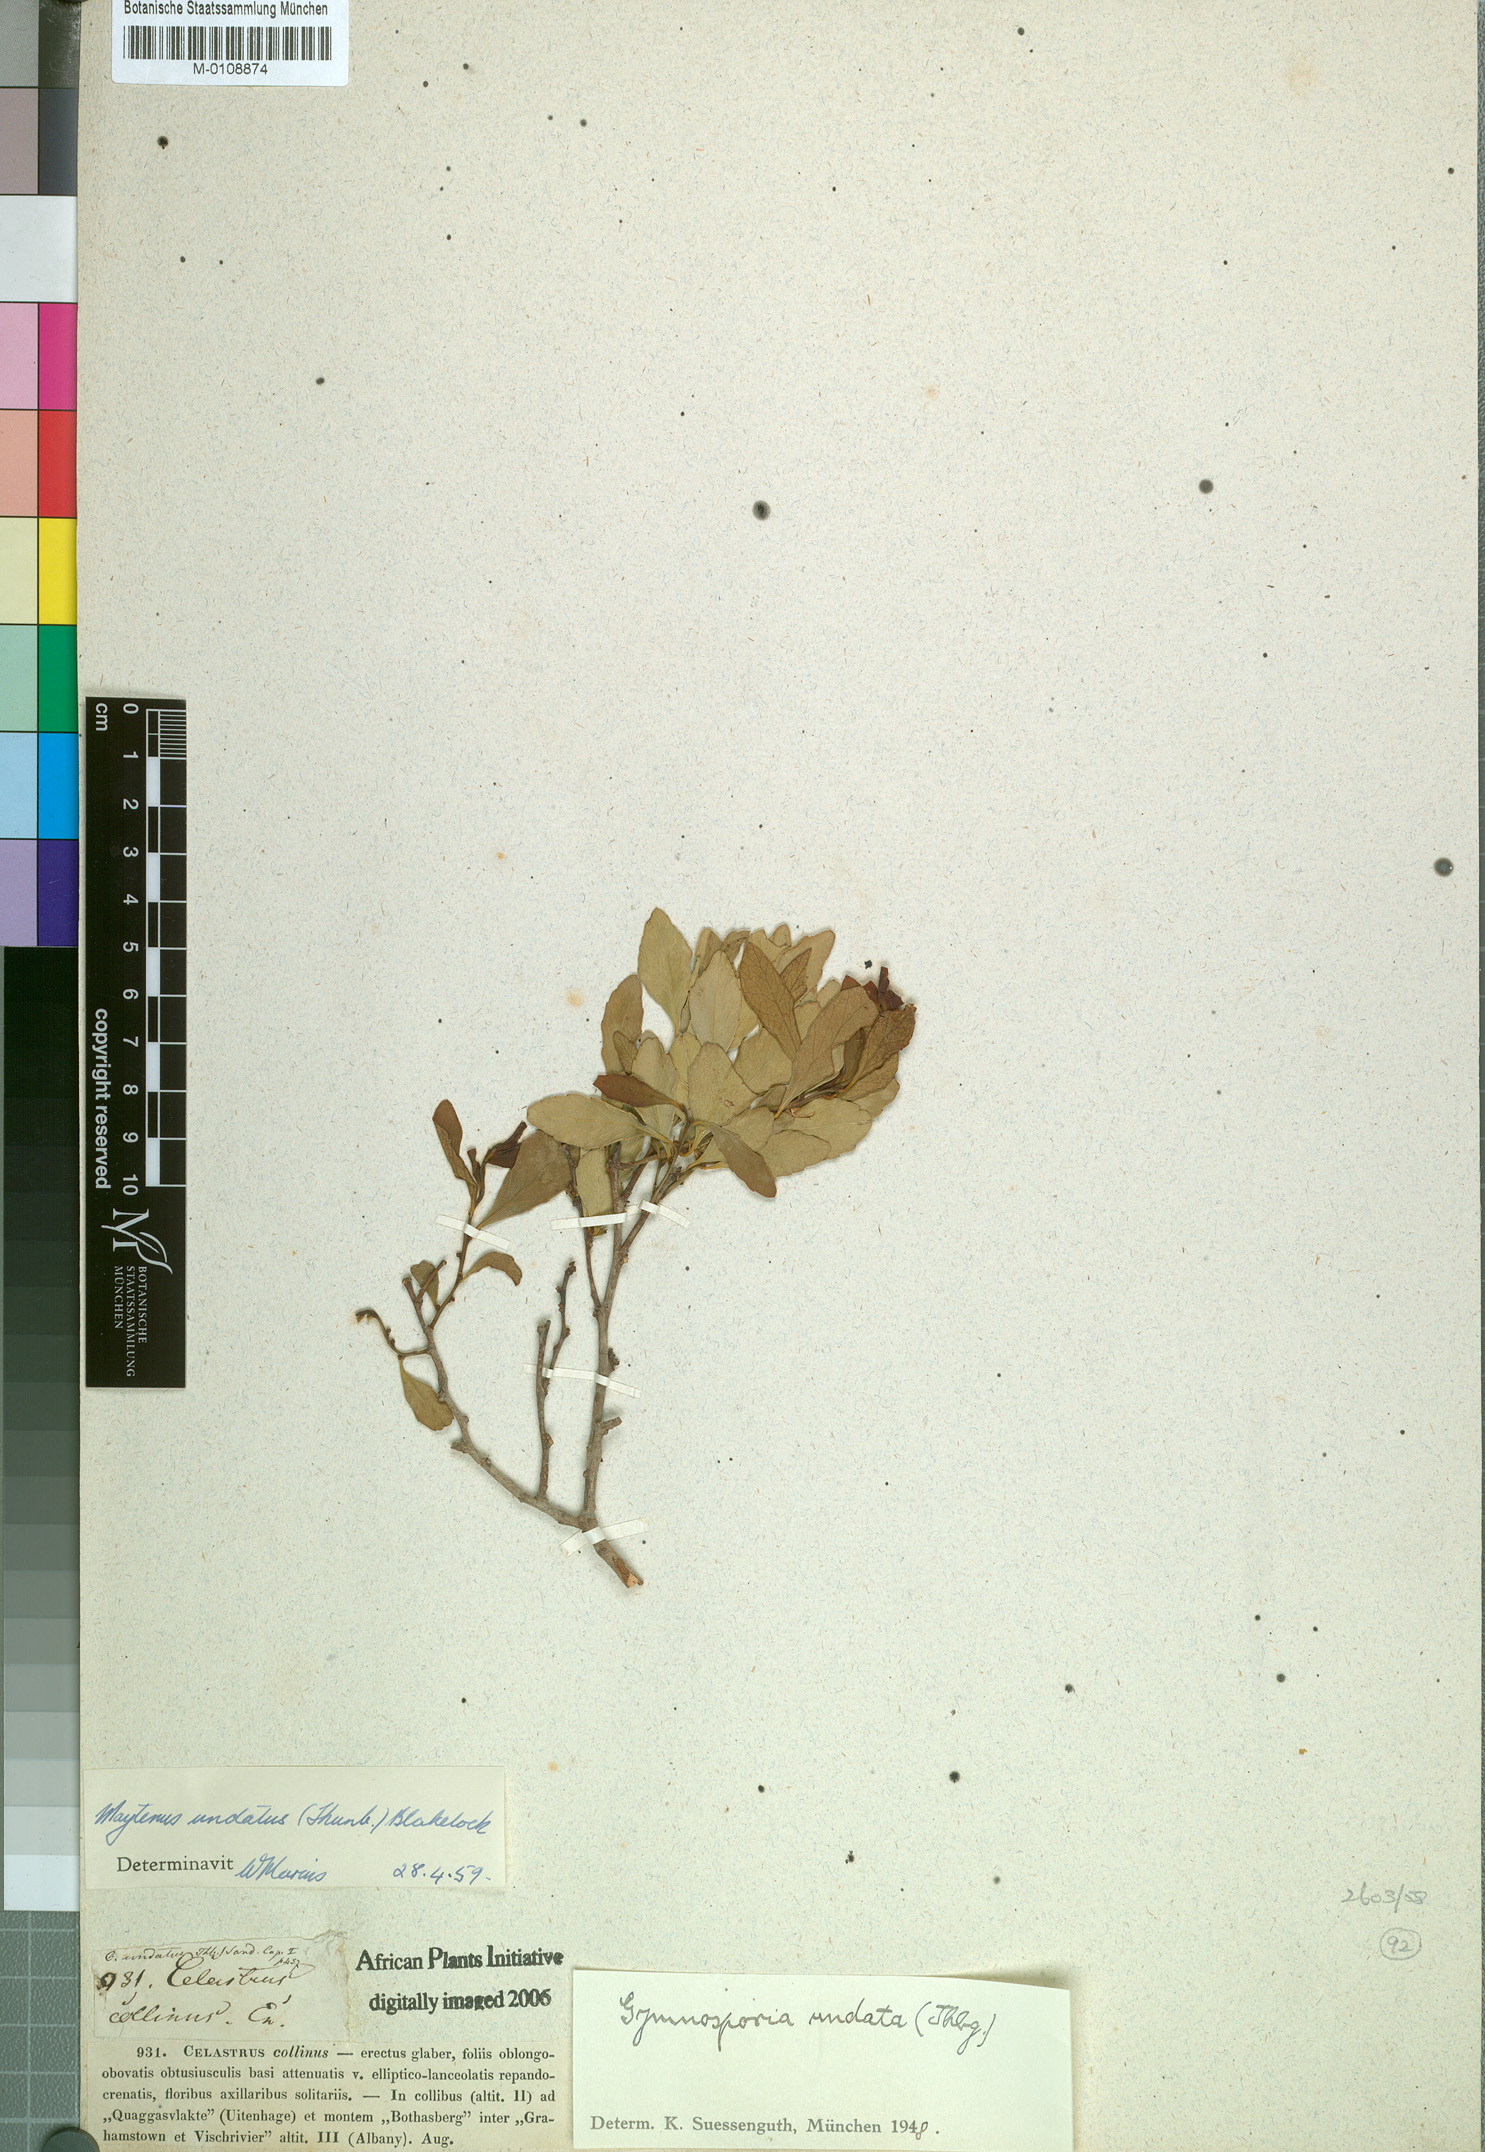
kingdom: Plantae
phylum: Tracheophyta
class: Magnoliopsida
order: Celastrales
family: Celastraceae
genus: Gymnosporia
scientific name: Gymnosporia undata
